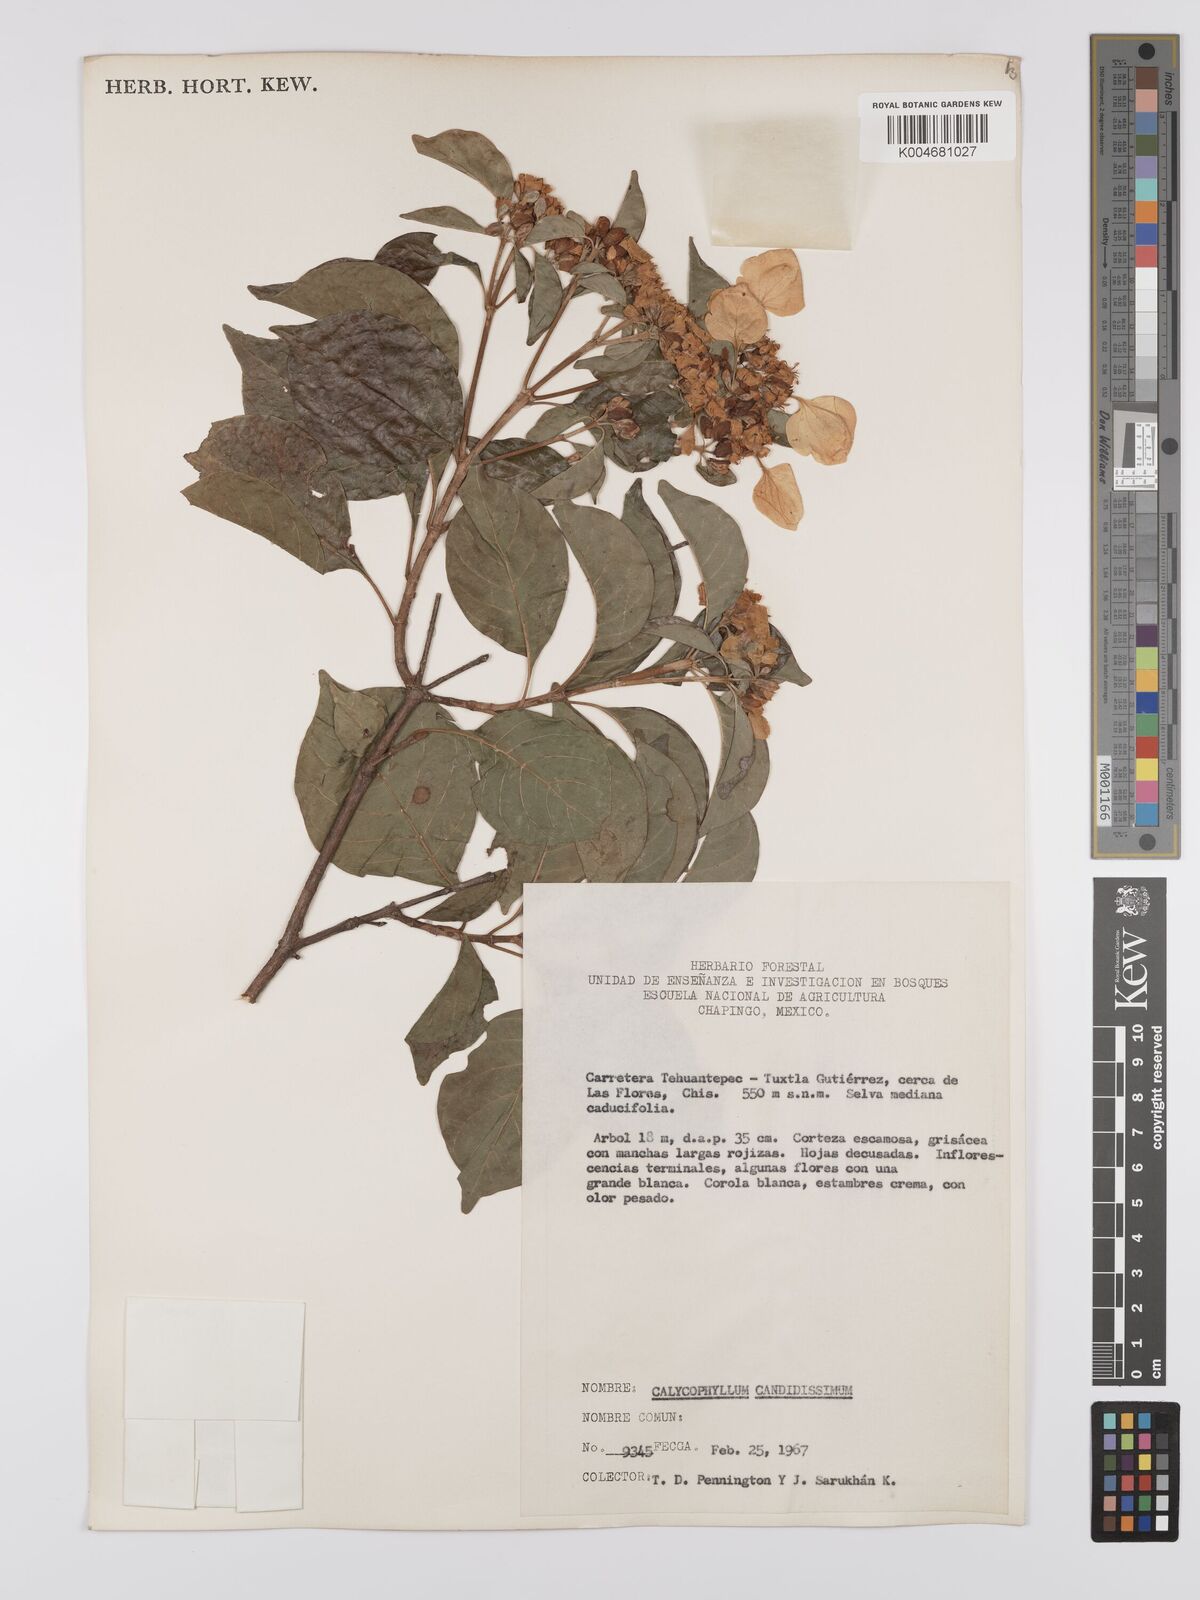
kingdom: Plantae
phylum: Tracheophyta
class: Magnoliopsida
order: Gentianales
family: Rubiaceae
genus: Calycophyllum
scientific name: Calycophyllum candidissimum
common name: Dagame
